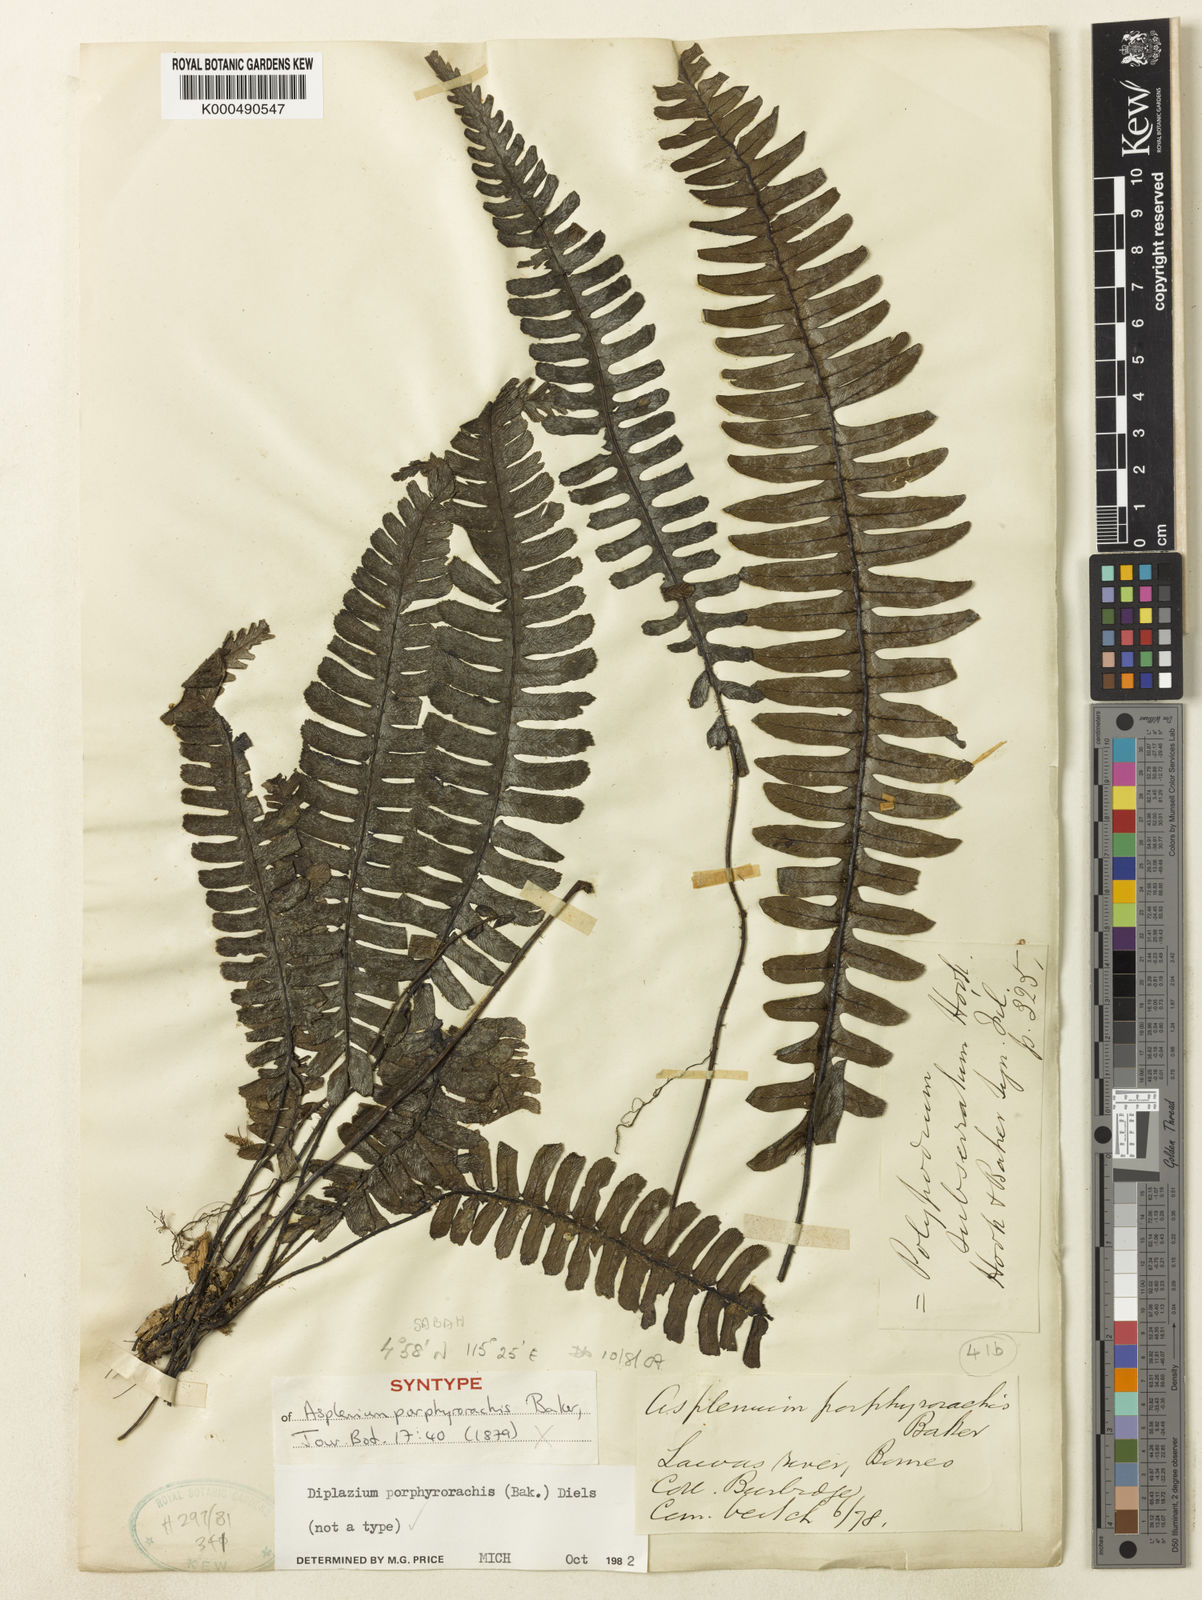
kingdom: Plantae
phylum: Tracheophyta
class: Polypodiopsida
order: Polypodiales
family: Athyriaceae
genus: Diplazium
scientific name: Diplazium porphyrorachis
